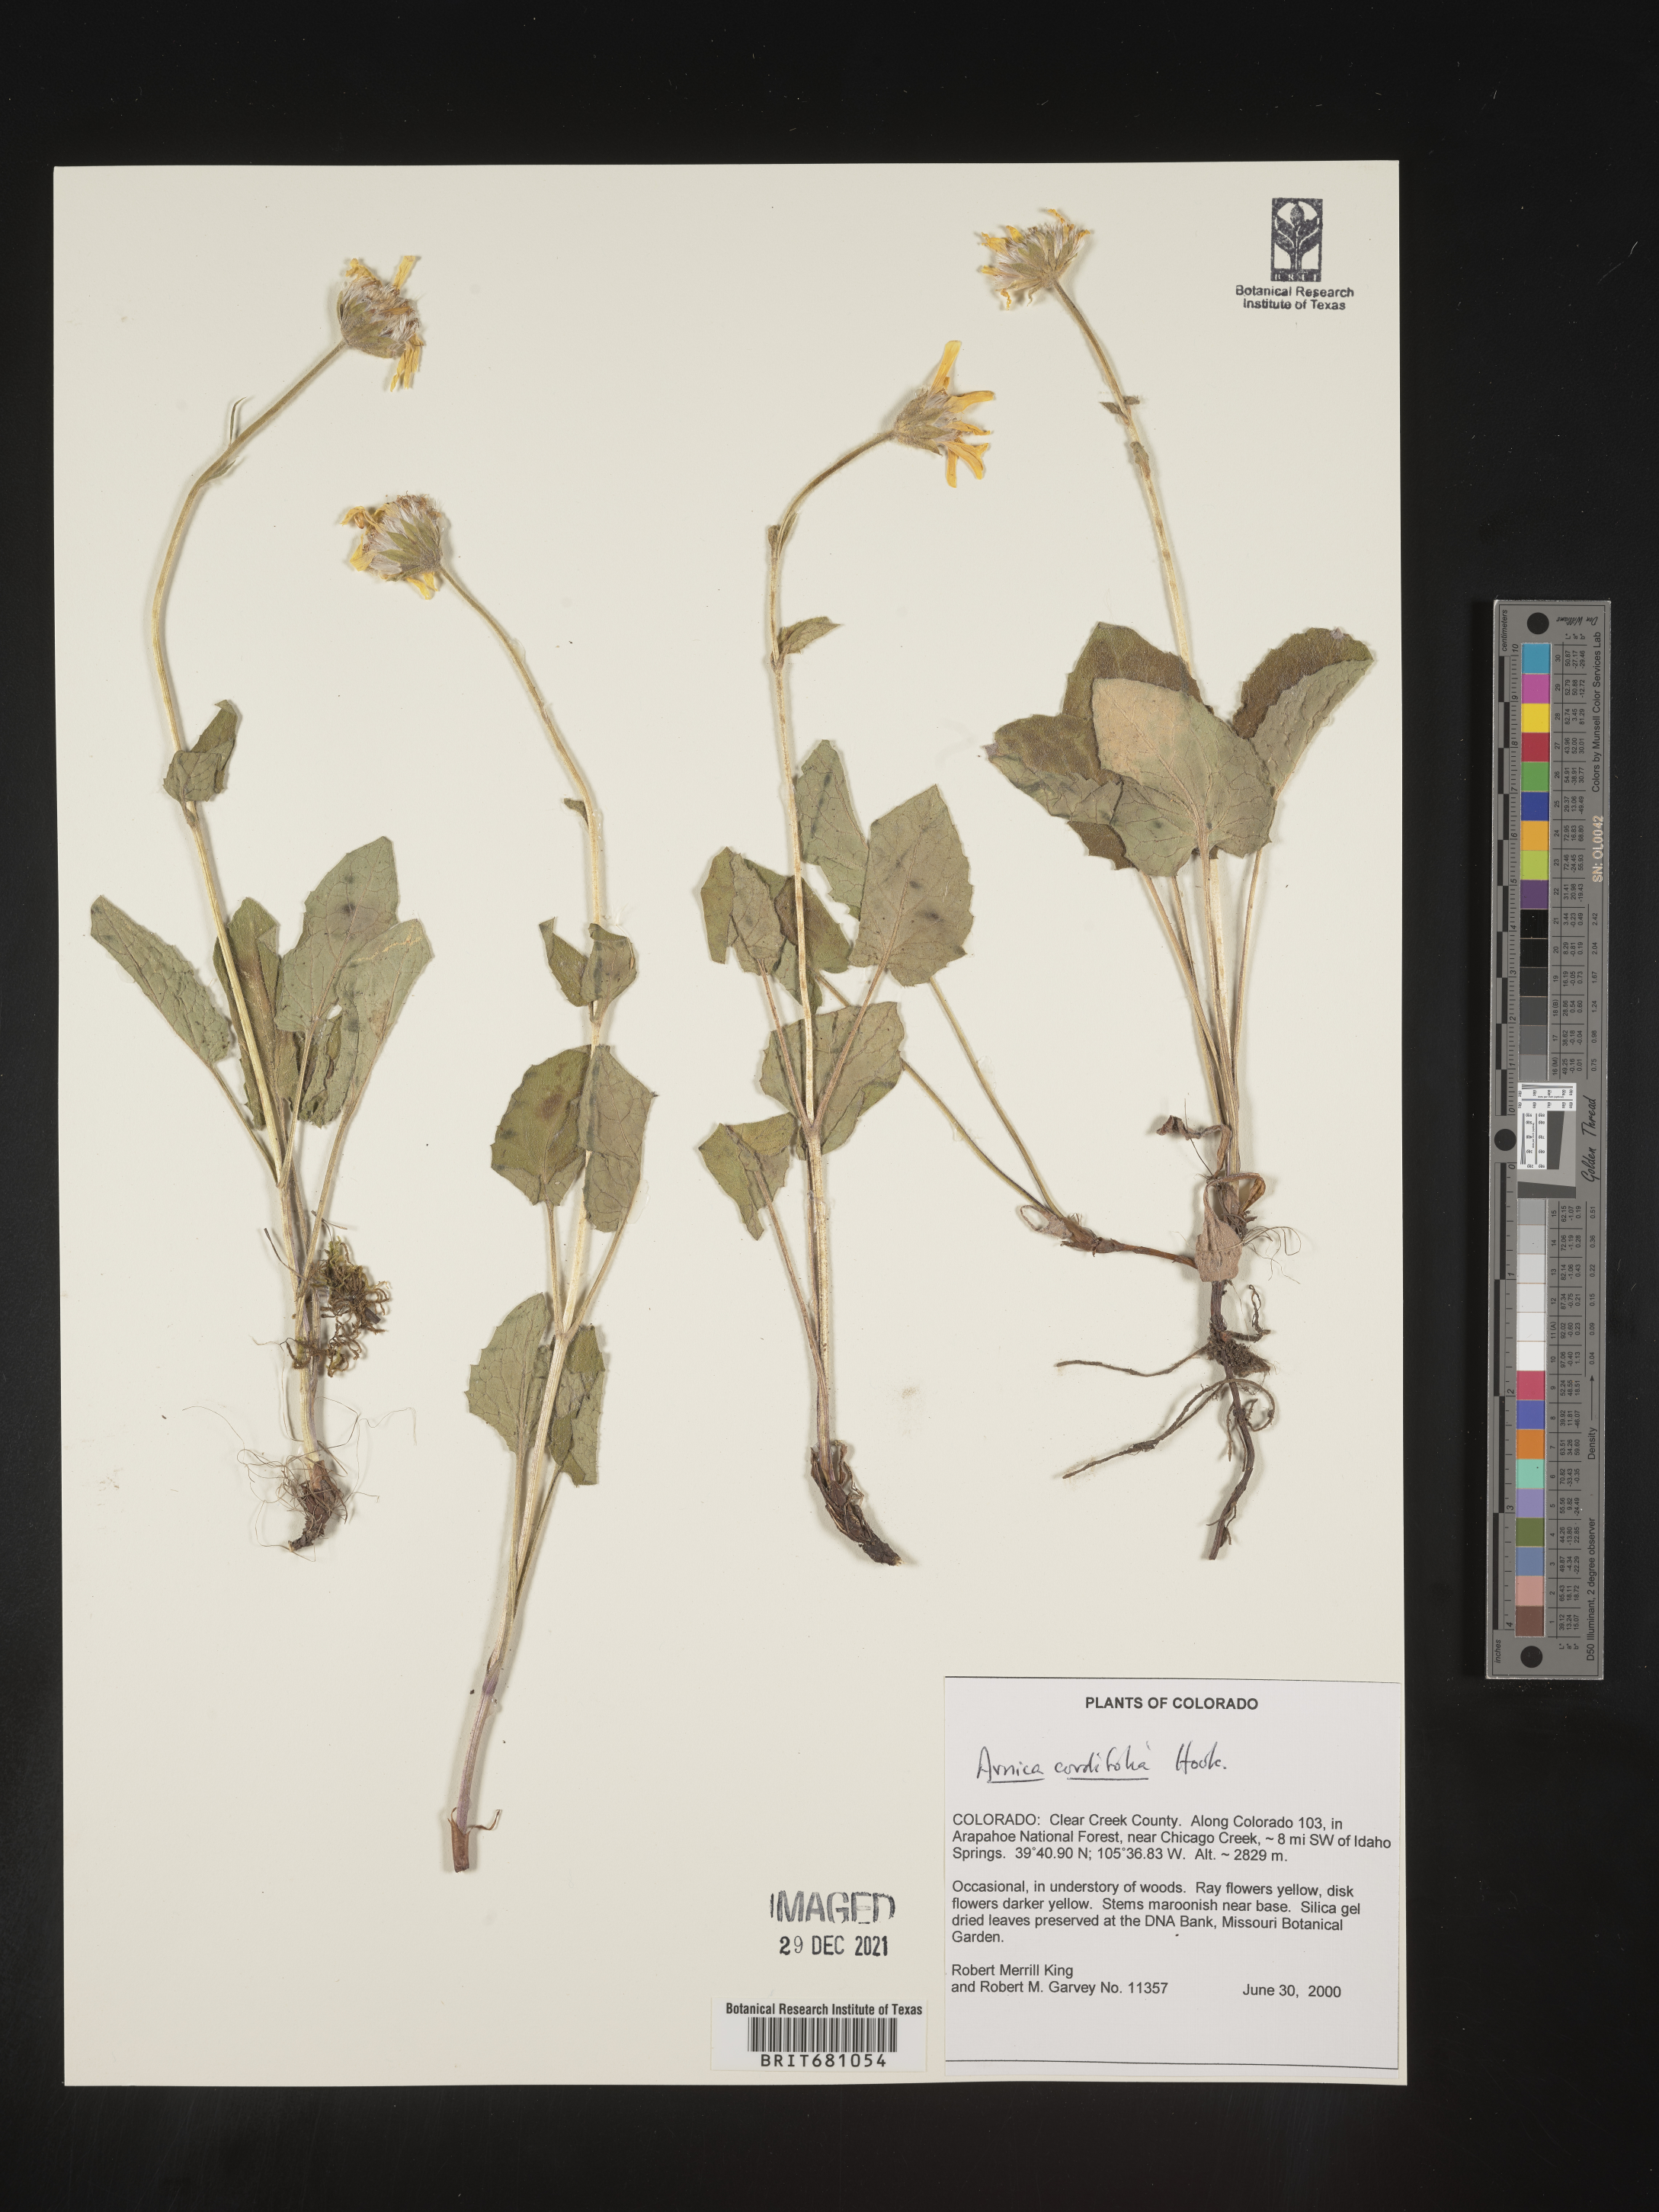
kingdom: Plantae
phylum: Tracheophyta
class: Magnoliopsida
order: Asterales
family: Asteraceae
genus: Arnica
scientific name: Arnica cordifolia
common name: Heart-leaf arnica
